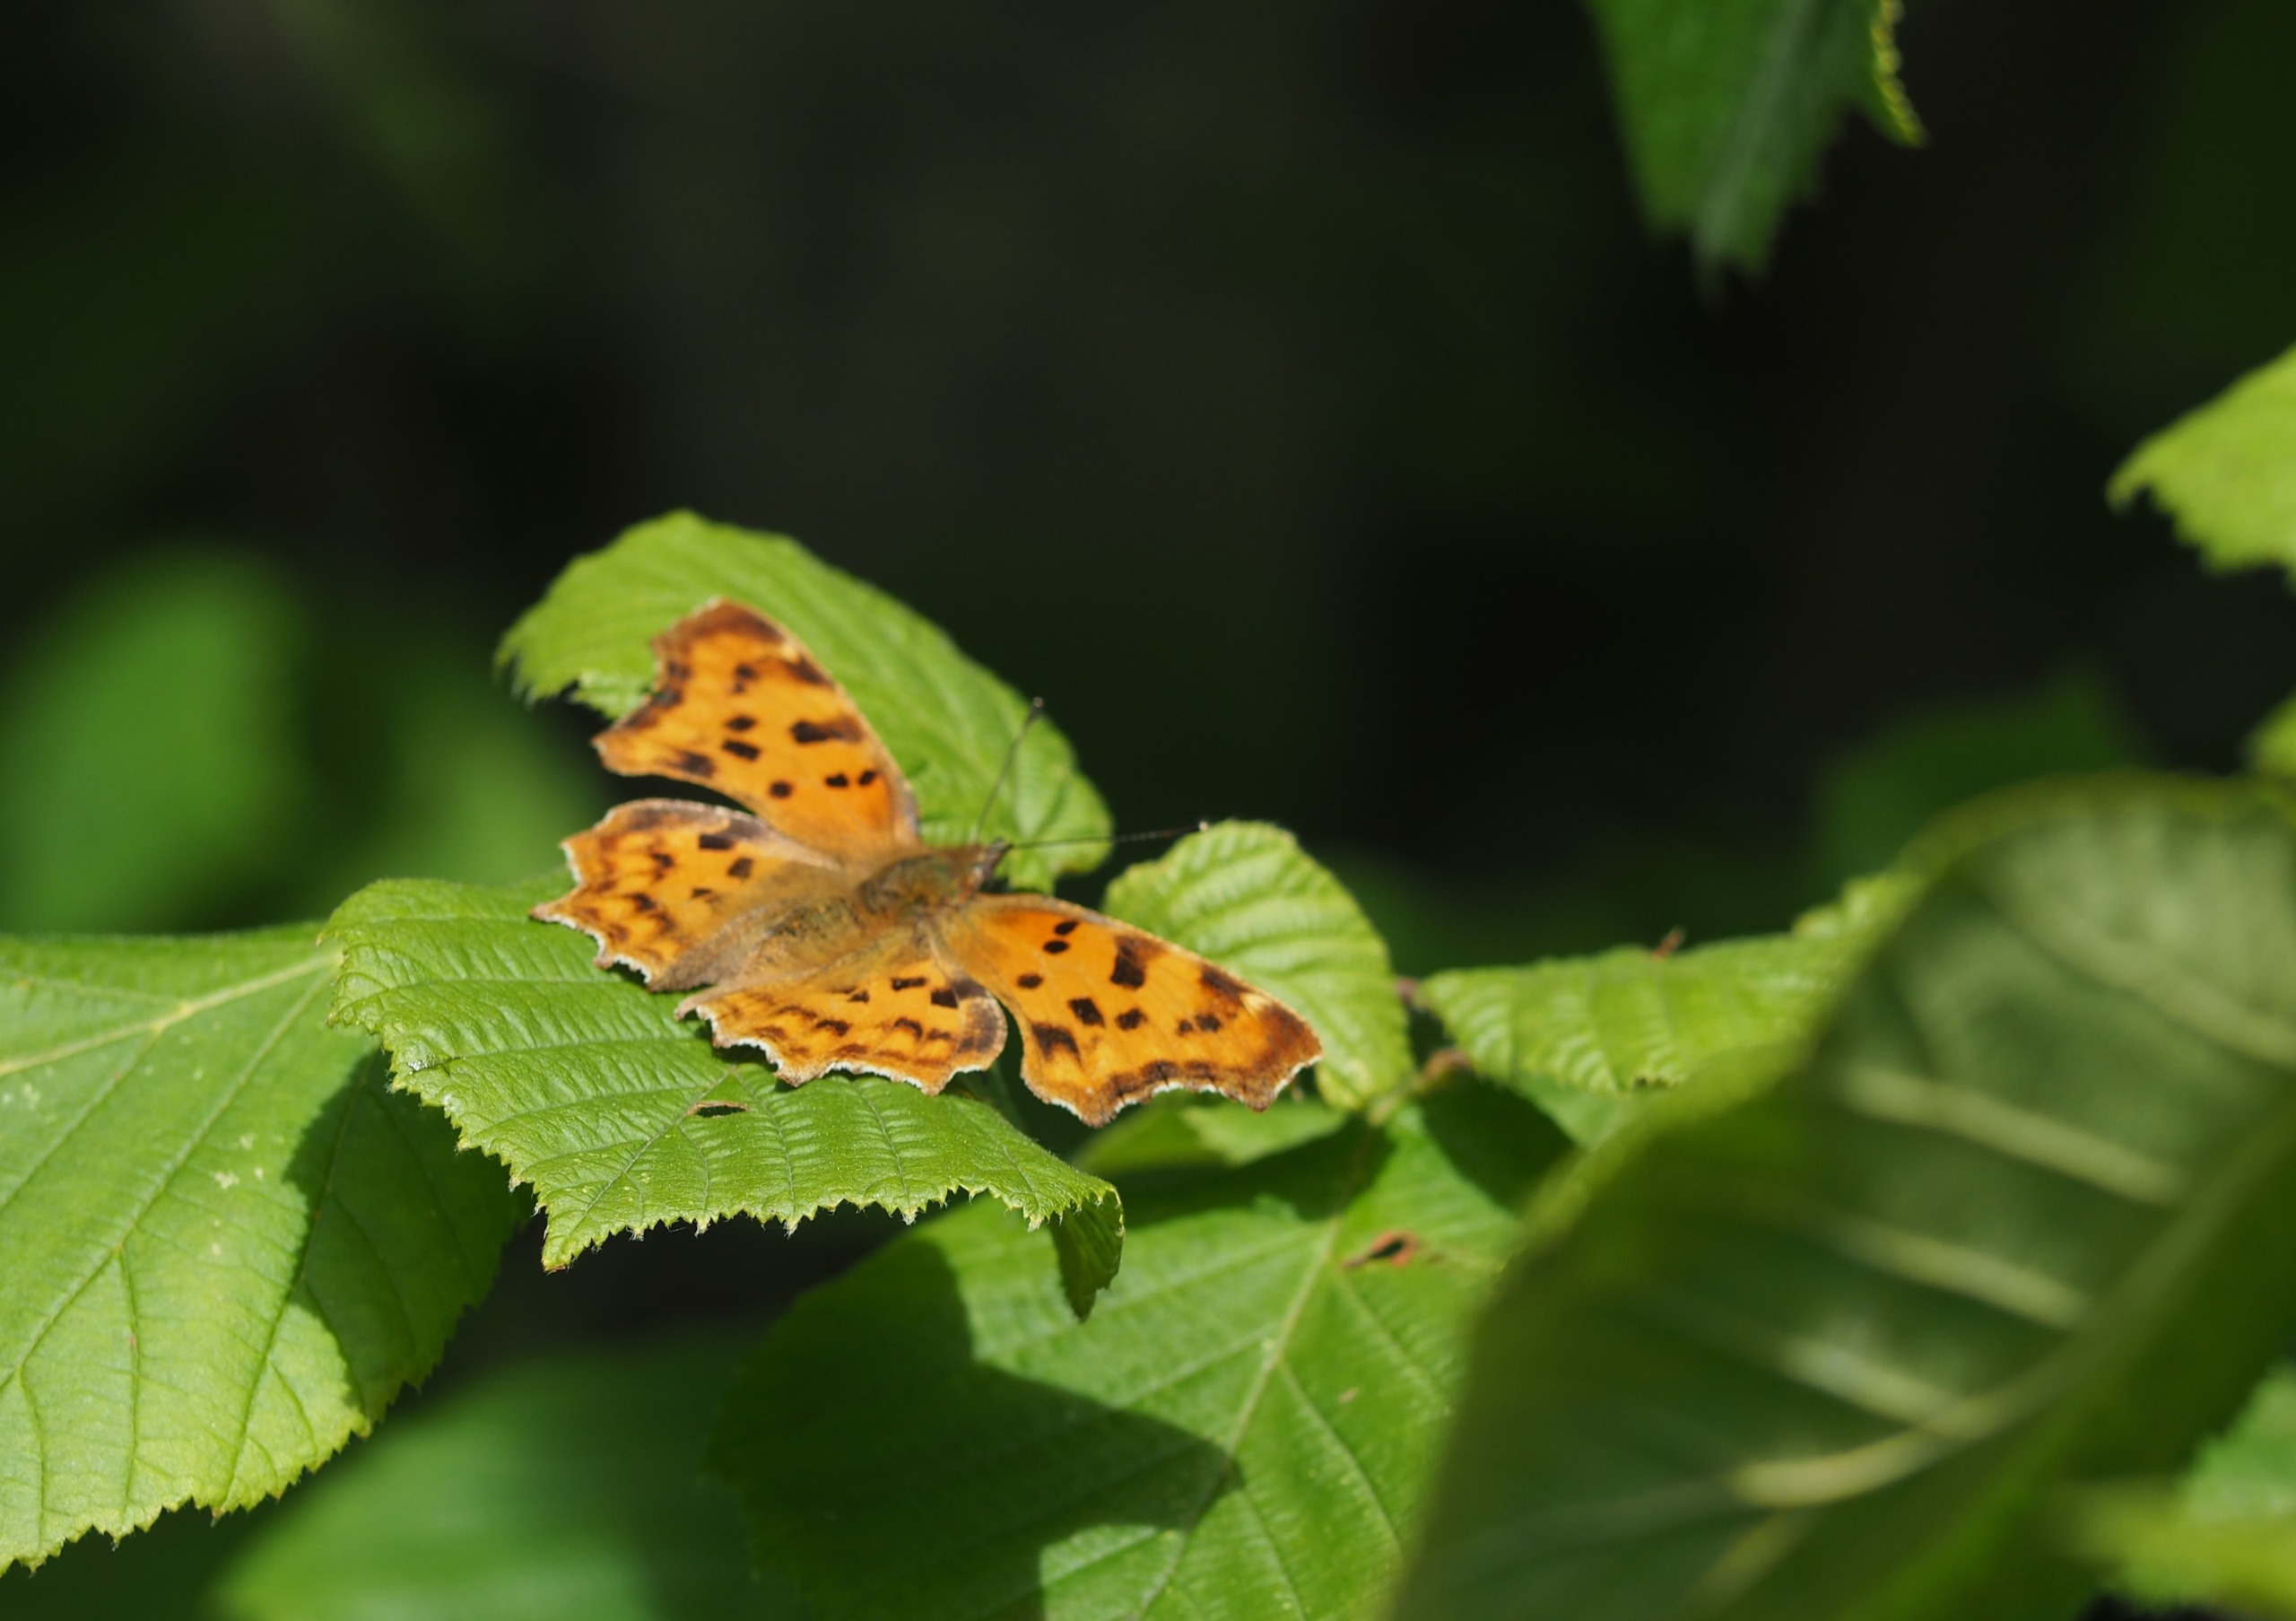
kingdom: Animalia
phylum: Arthropoda
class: Insecta
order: Lepidoptera
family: Nymphalidae
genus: Polygonia
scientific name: Polygonia c-album
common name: Det hvide C
